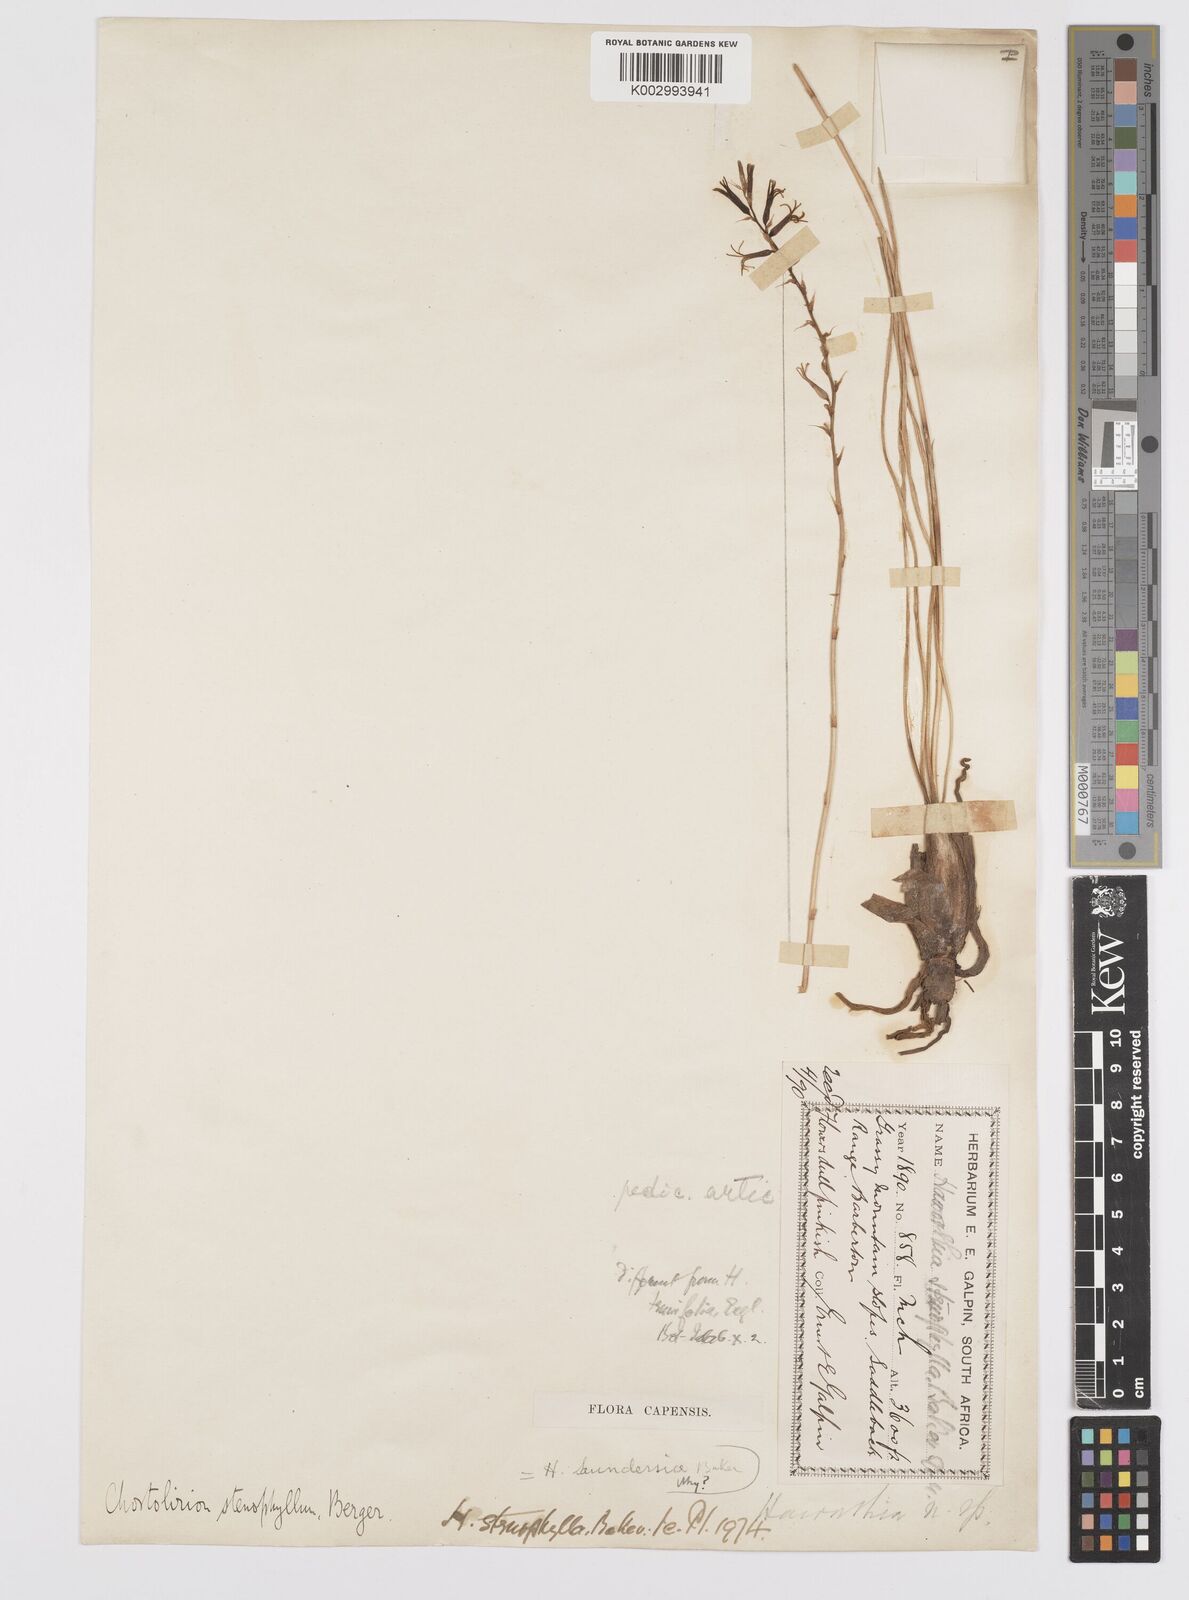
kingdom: Plantae
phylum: Tracheophyta
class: Liliopsida
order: Asparagales
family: Asphodelaceae
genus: Aloe
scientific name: Aloe welwitschii
